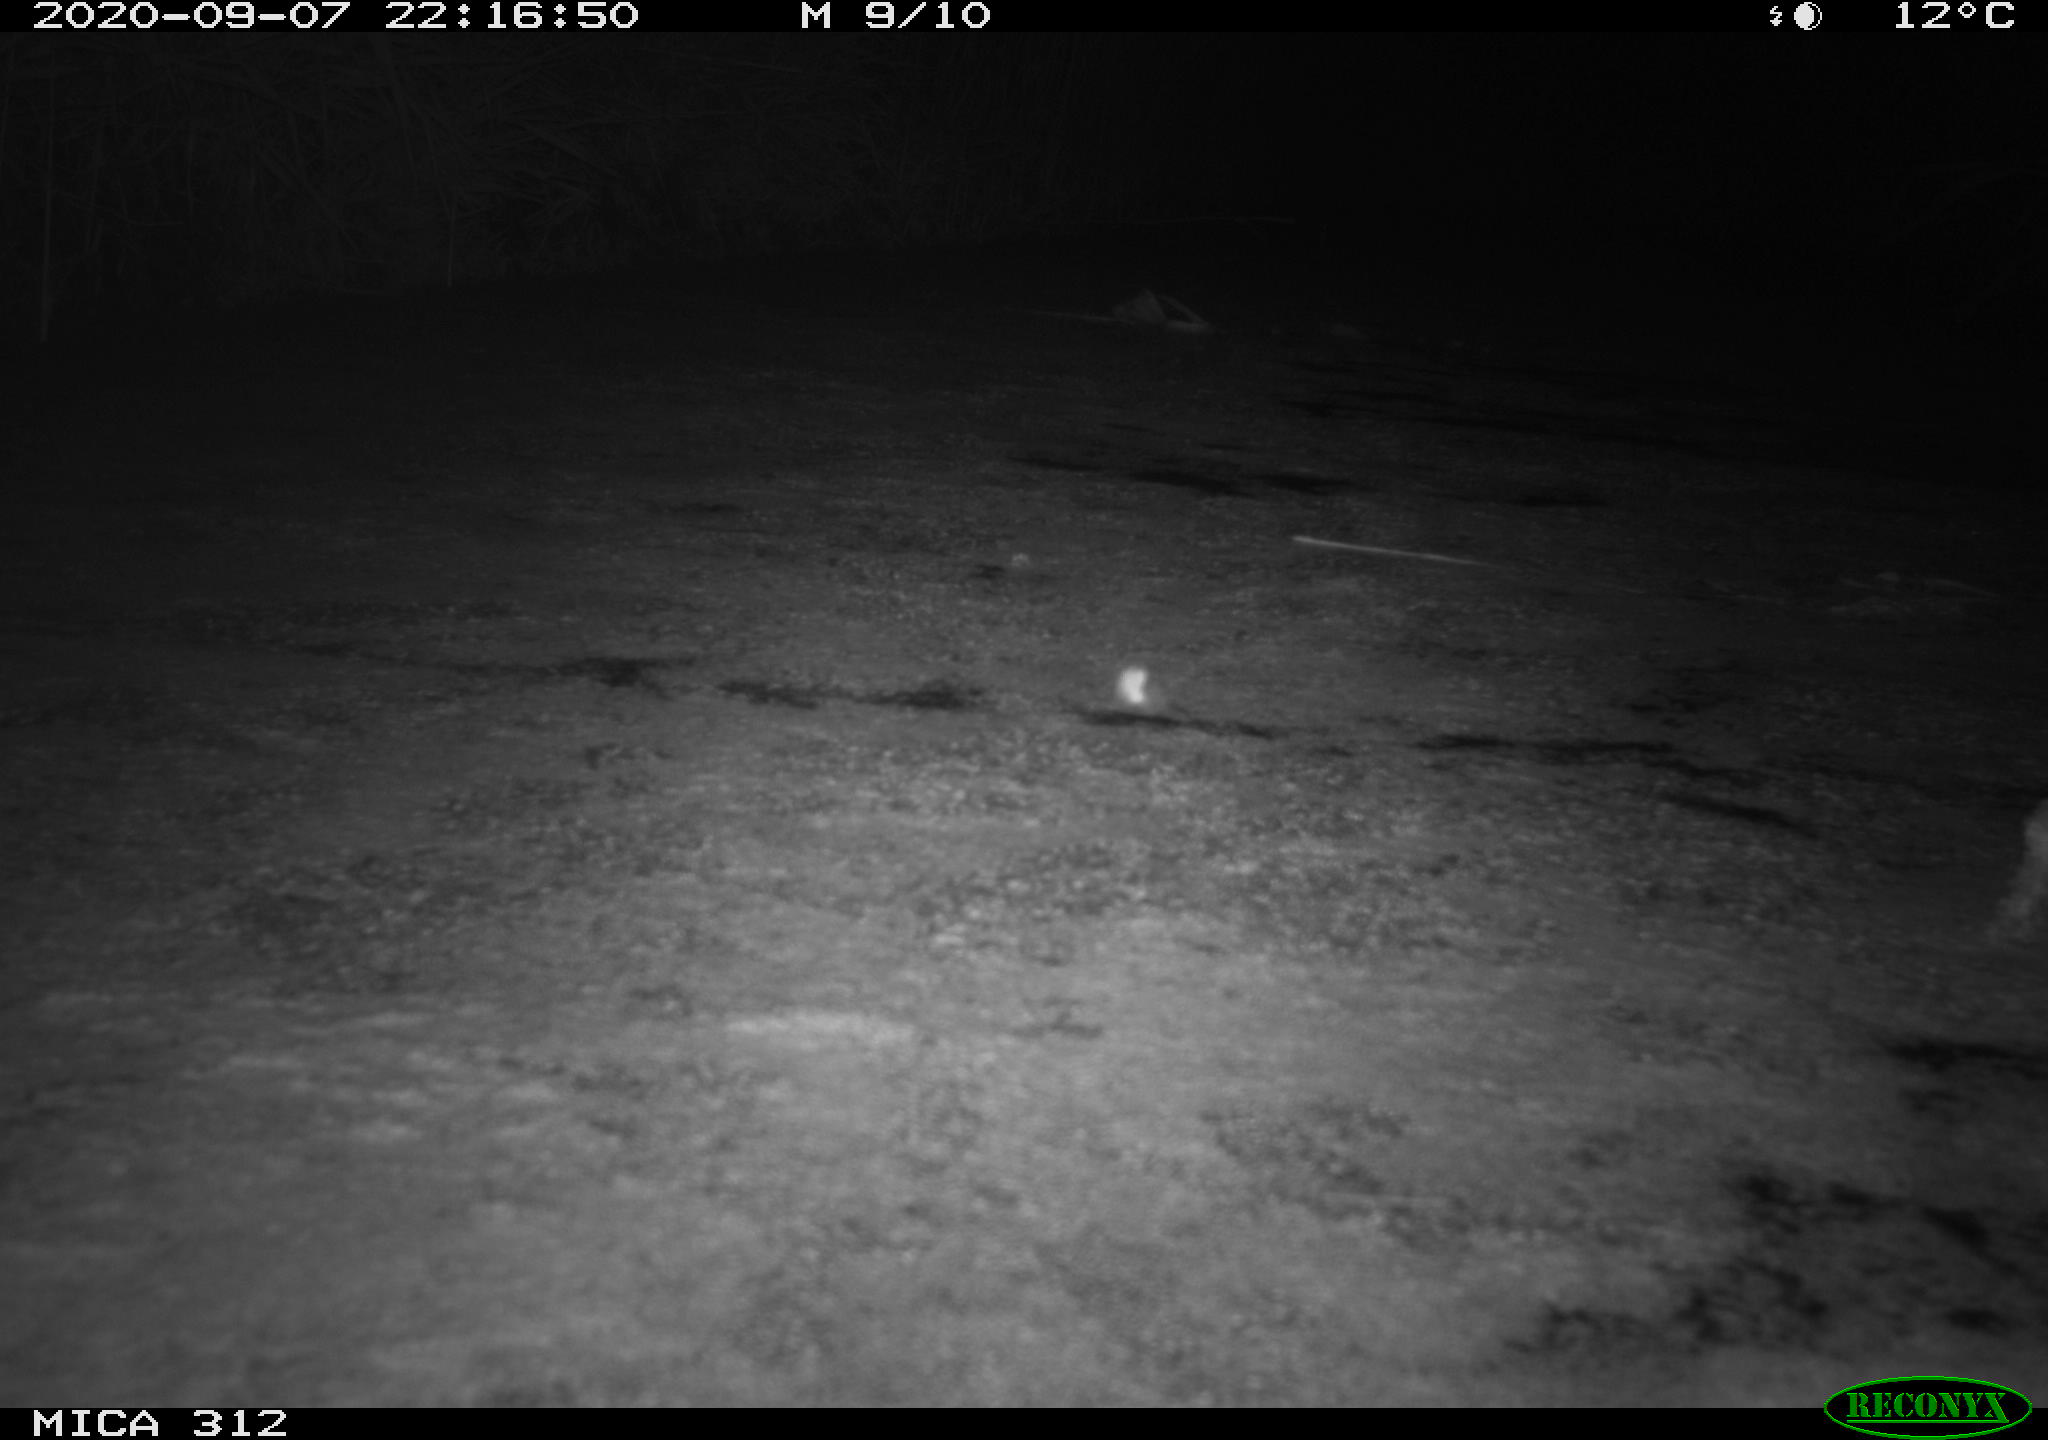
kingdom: Animalia
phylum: Chordata
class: Mammalia
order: Rodentia
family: Muridae
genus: Rattus
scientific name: Rattus norvegicus
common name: Brown rat
